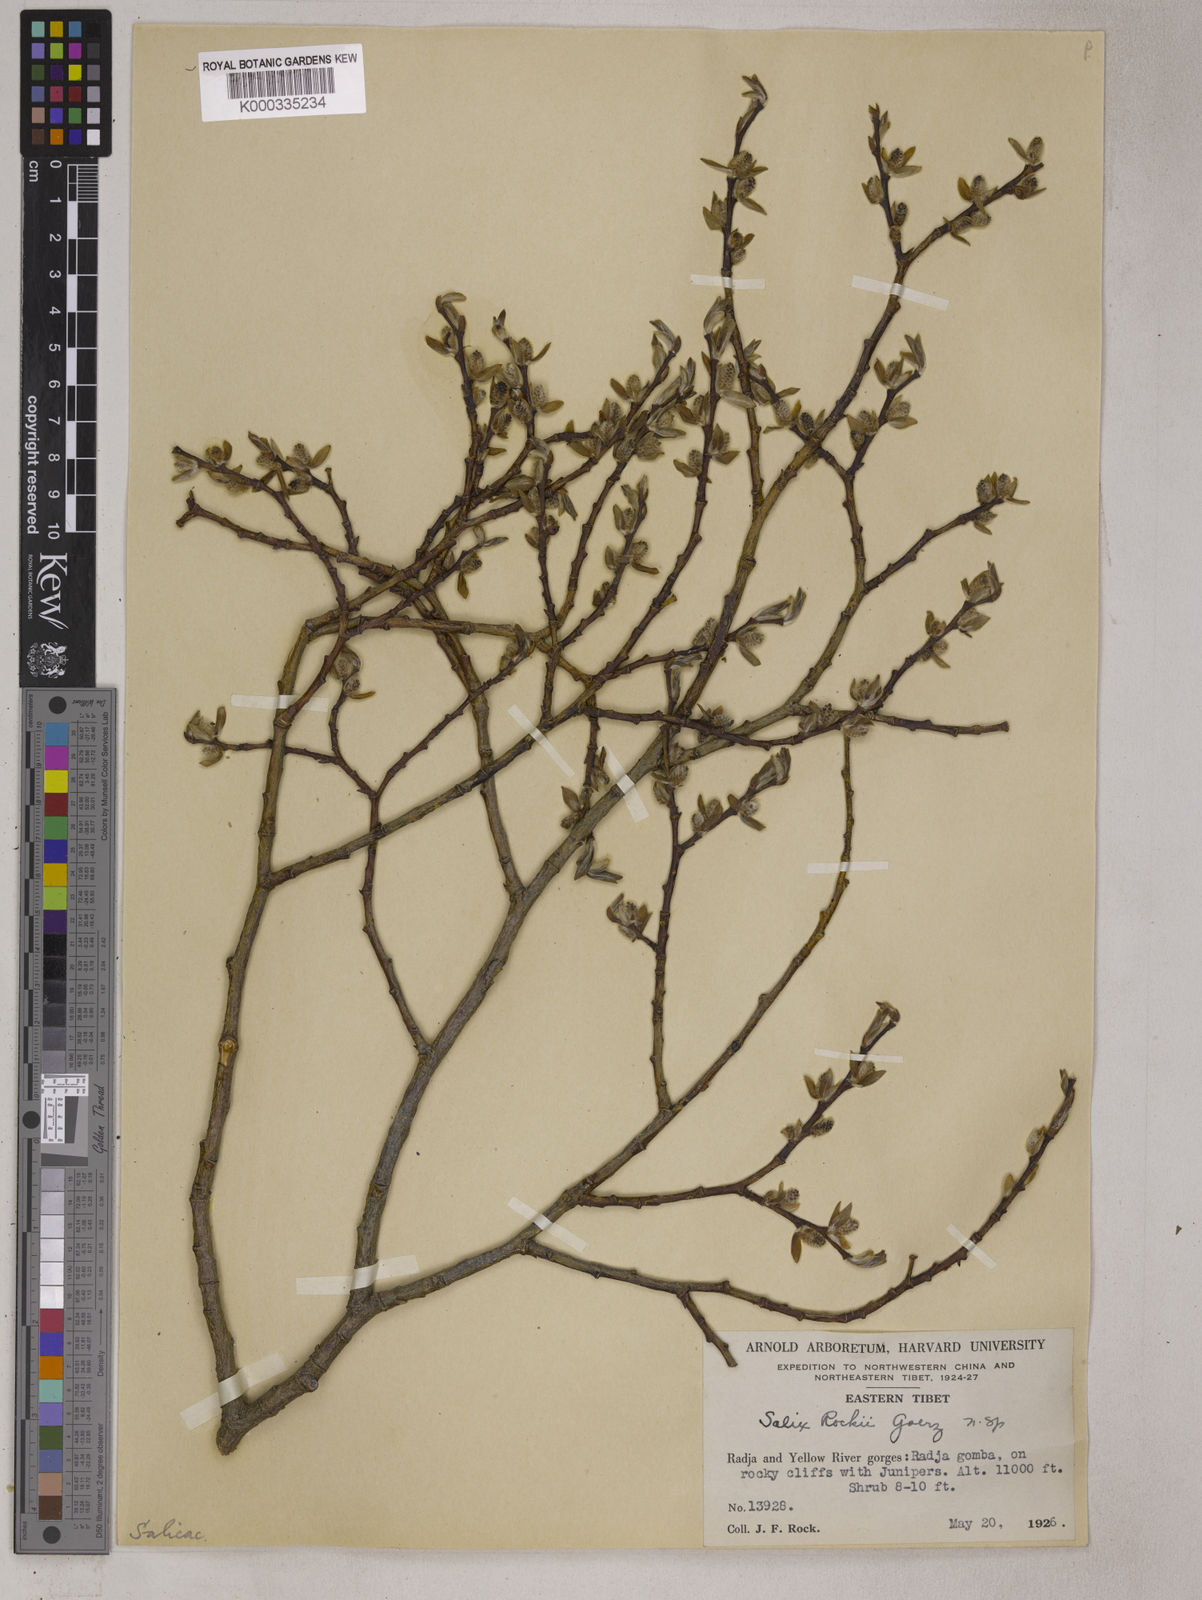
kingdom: Plantae
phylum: Tracheophyta
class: Magnoliopsida
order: Malpighiales
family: Salicaceae
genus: Salix
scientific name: Salix
